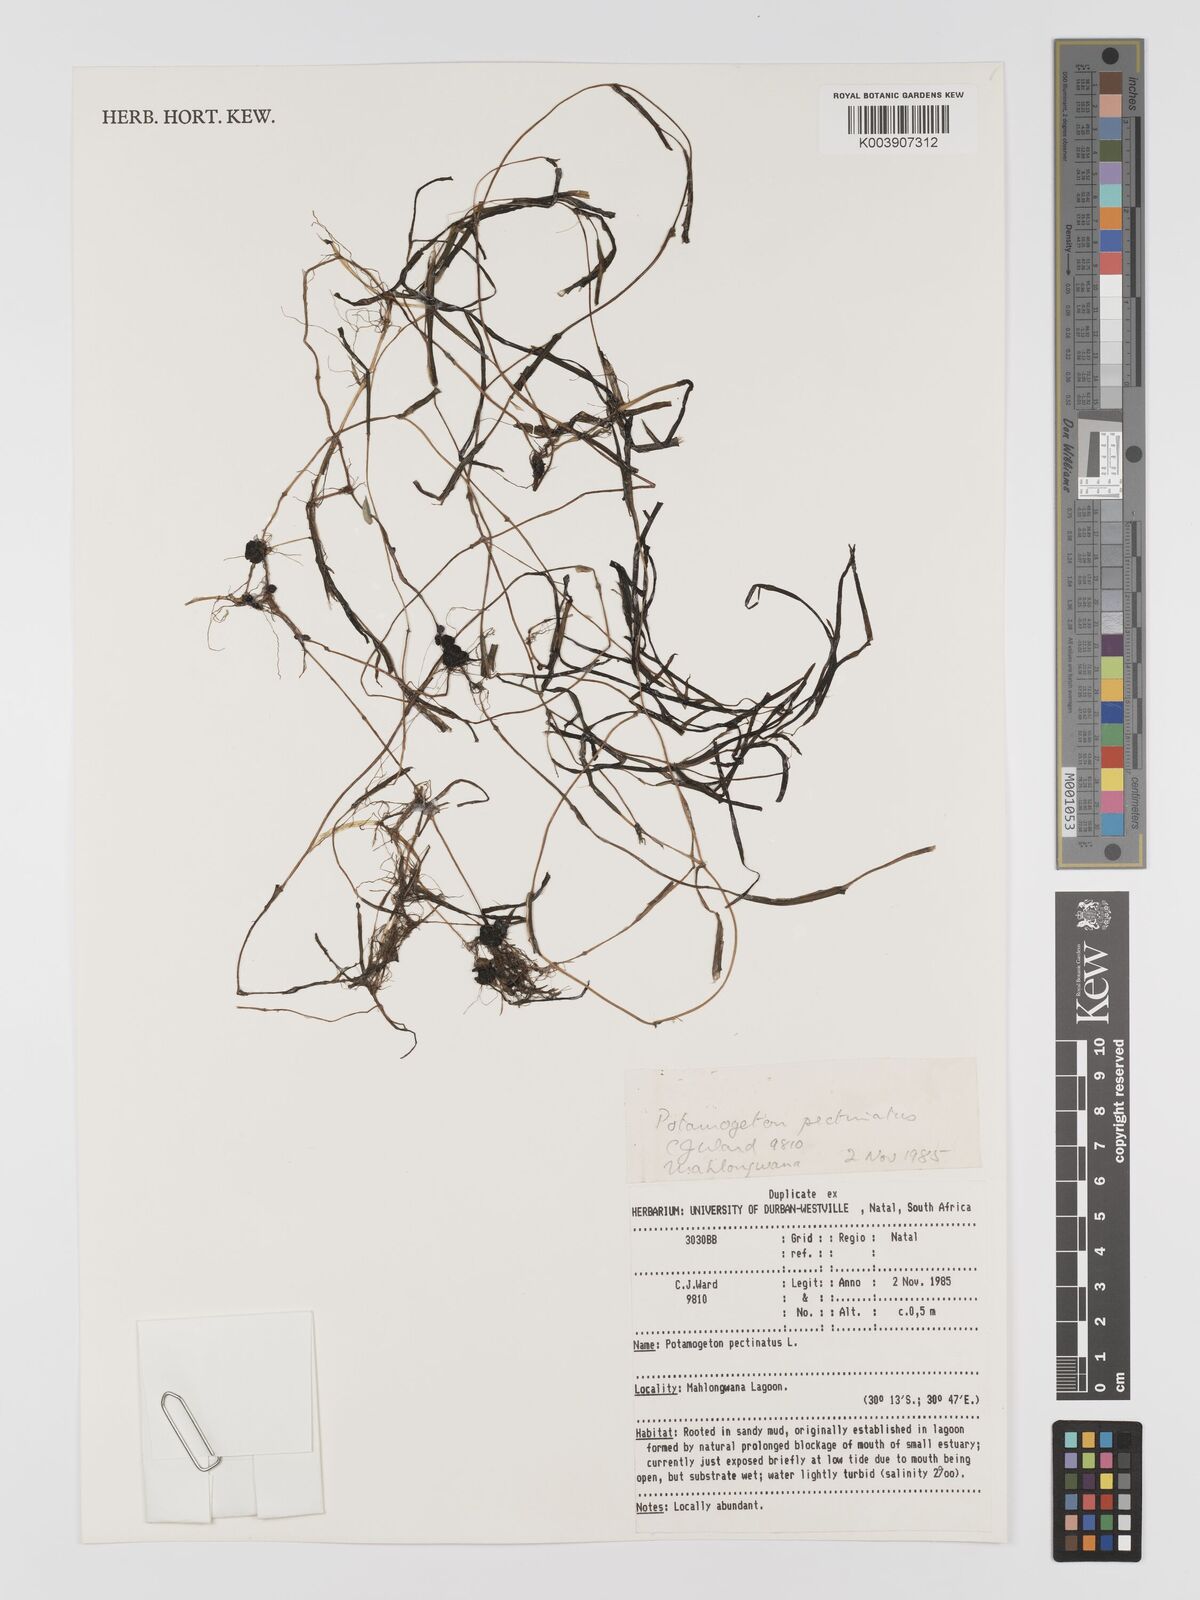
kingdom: Plantae
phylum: Tracheophyta
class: Liliopsida
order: Alismatales
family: Potamogetonaceae
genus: Stuckenia
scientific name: Stuckenia pectinata
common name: Sago pondweed
